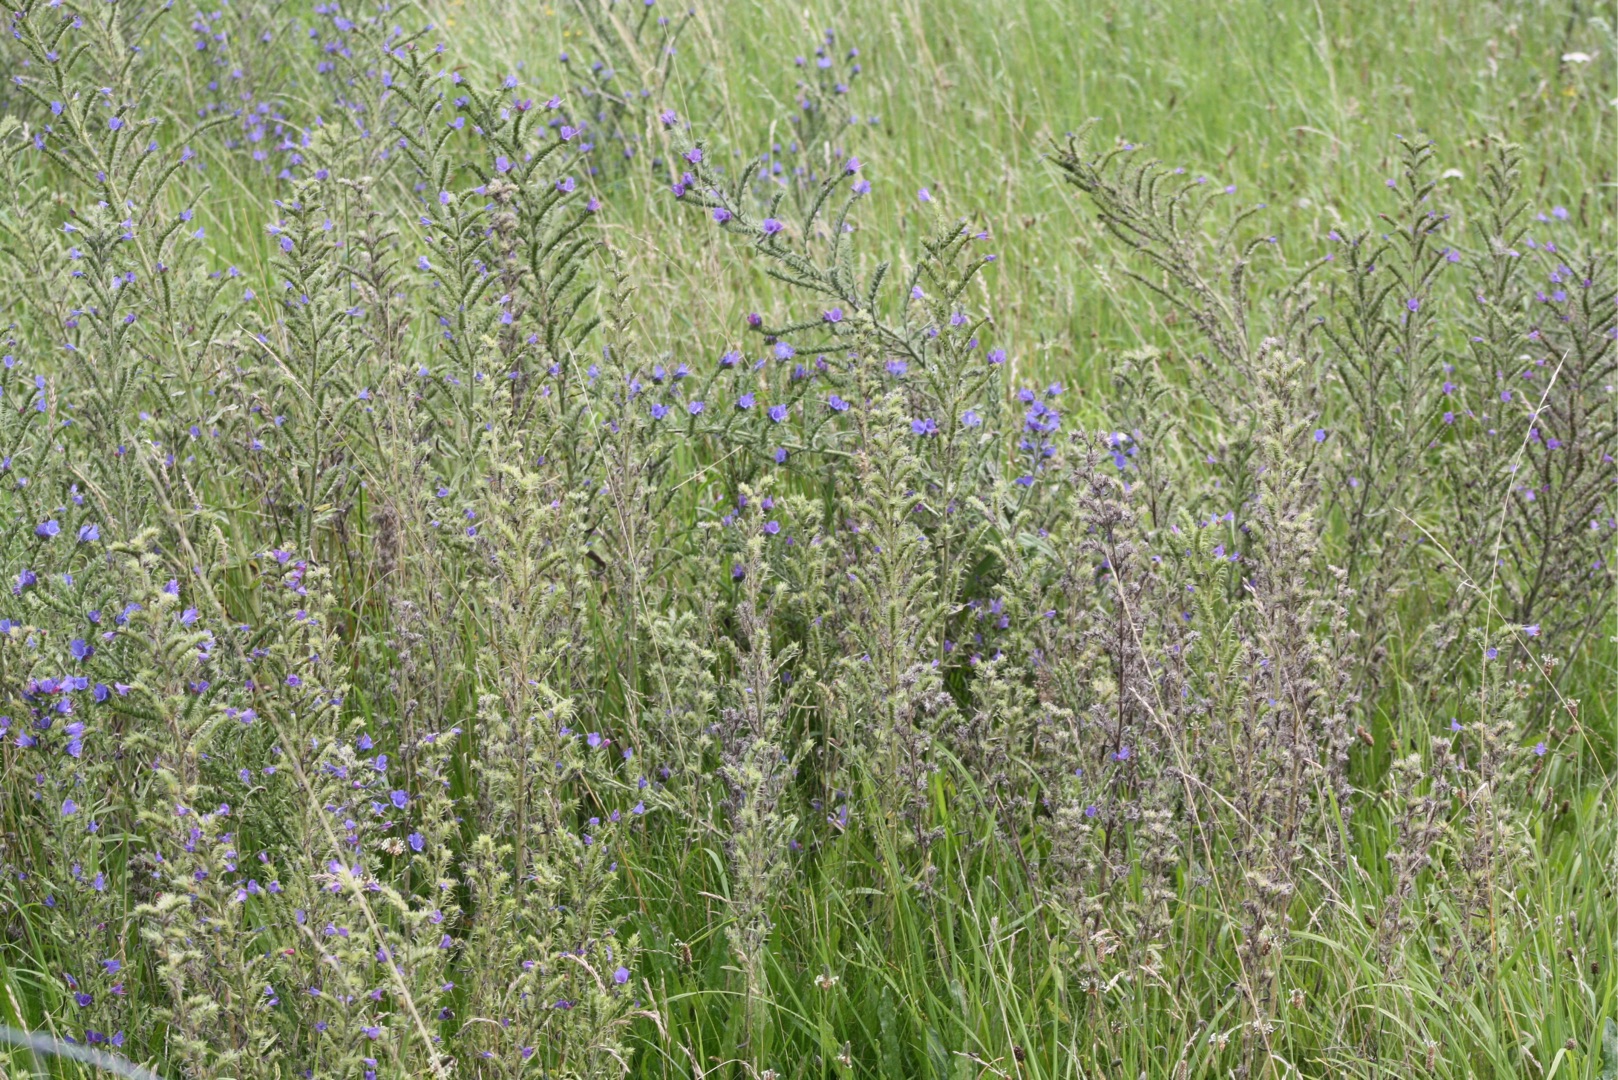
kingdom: Plantae
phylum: Tracheophyta
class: Magnoliopsida
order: Boraginales
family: Boraginaceae
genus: Echium
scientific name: Echium vulgare
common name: Slangehoved
